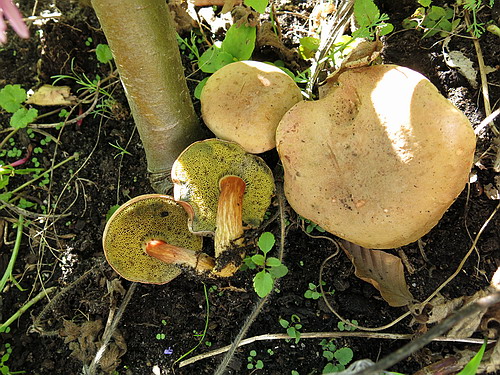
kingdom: Fungi
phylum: Basidiomycota
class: Agaricomycetes
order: Boletales
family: Boletaceae
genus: Hortiboletus
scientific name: Hortiboletus bubalinus
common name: aurora-rørhat
